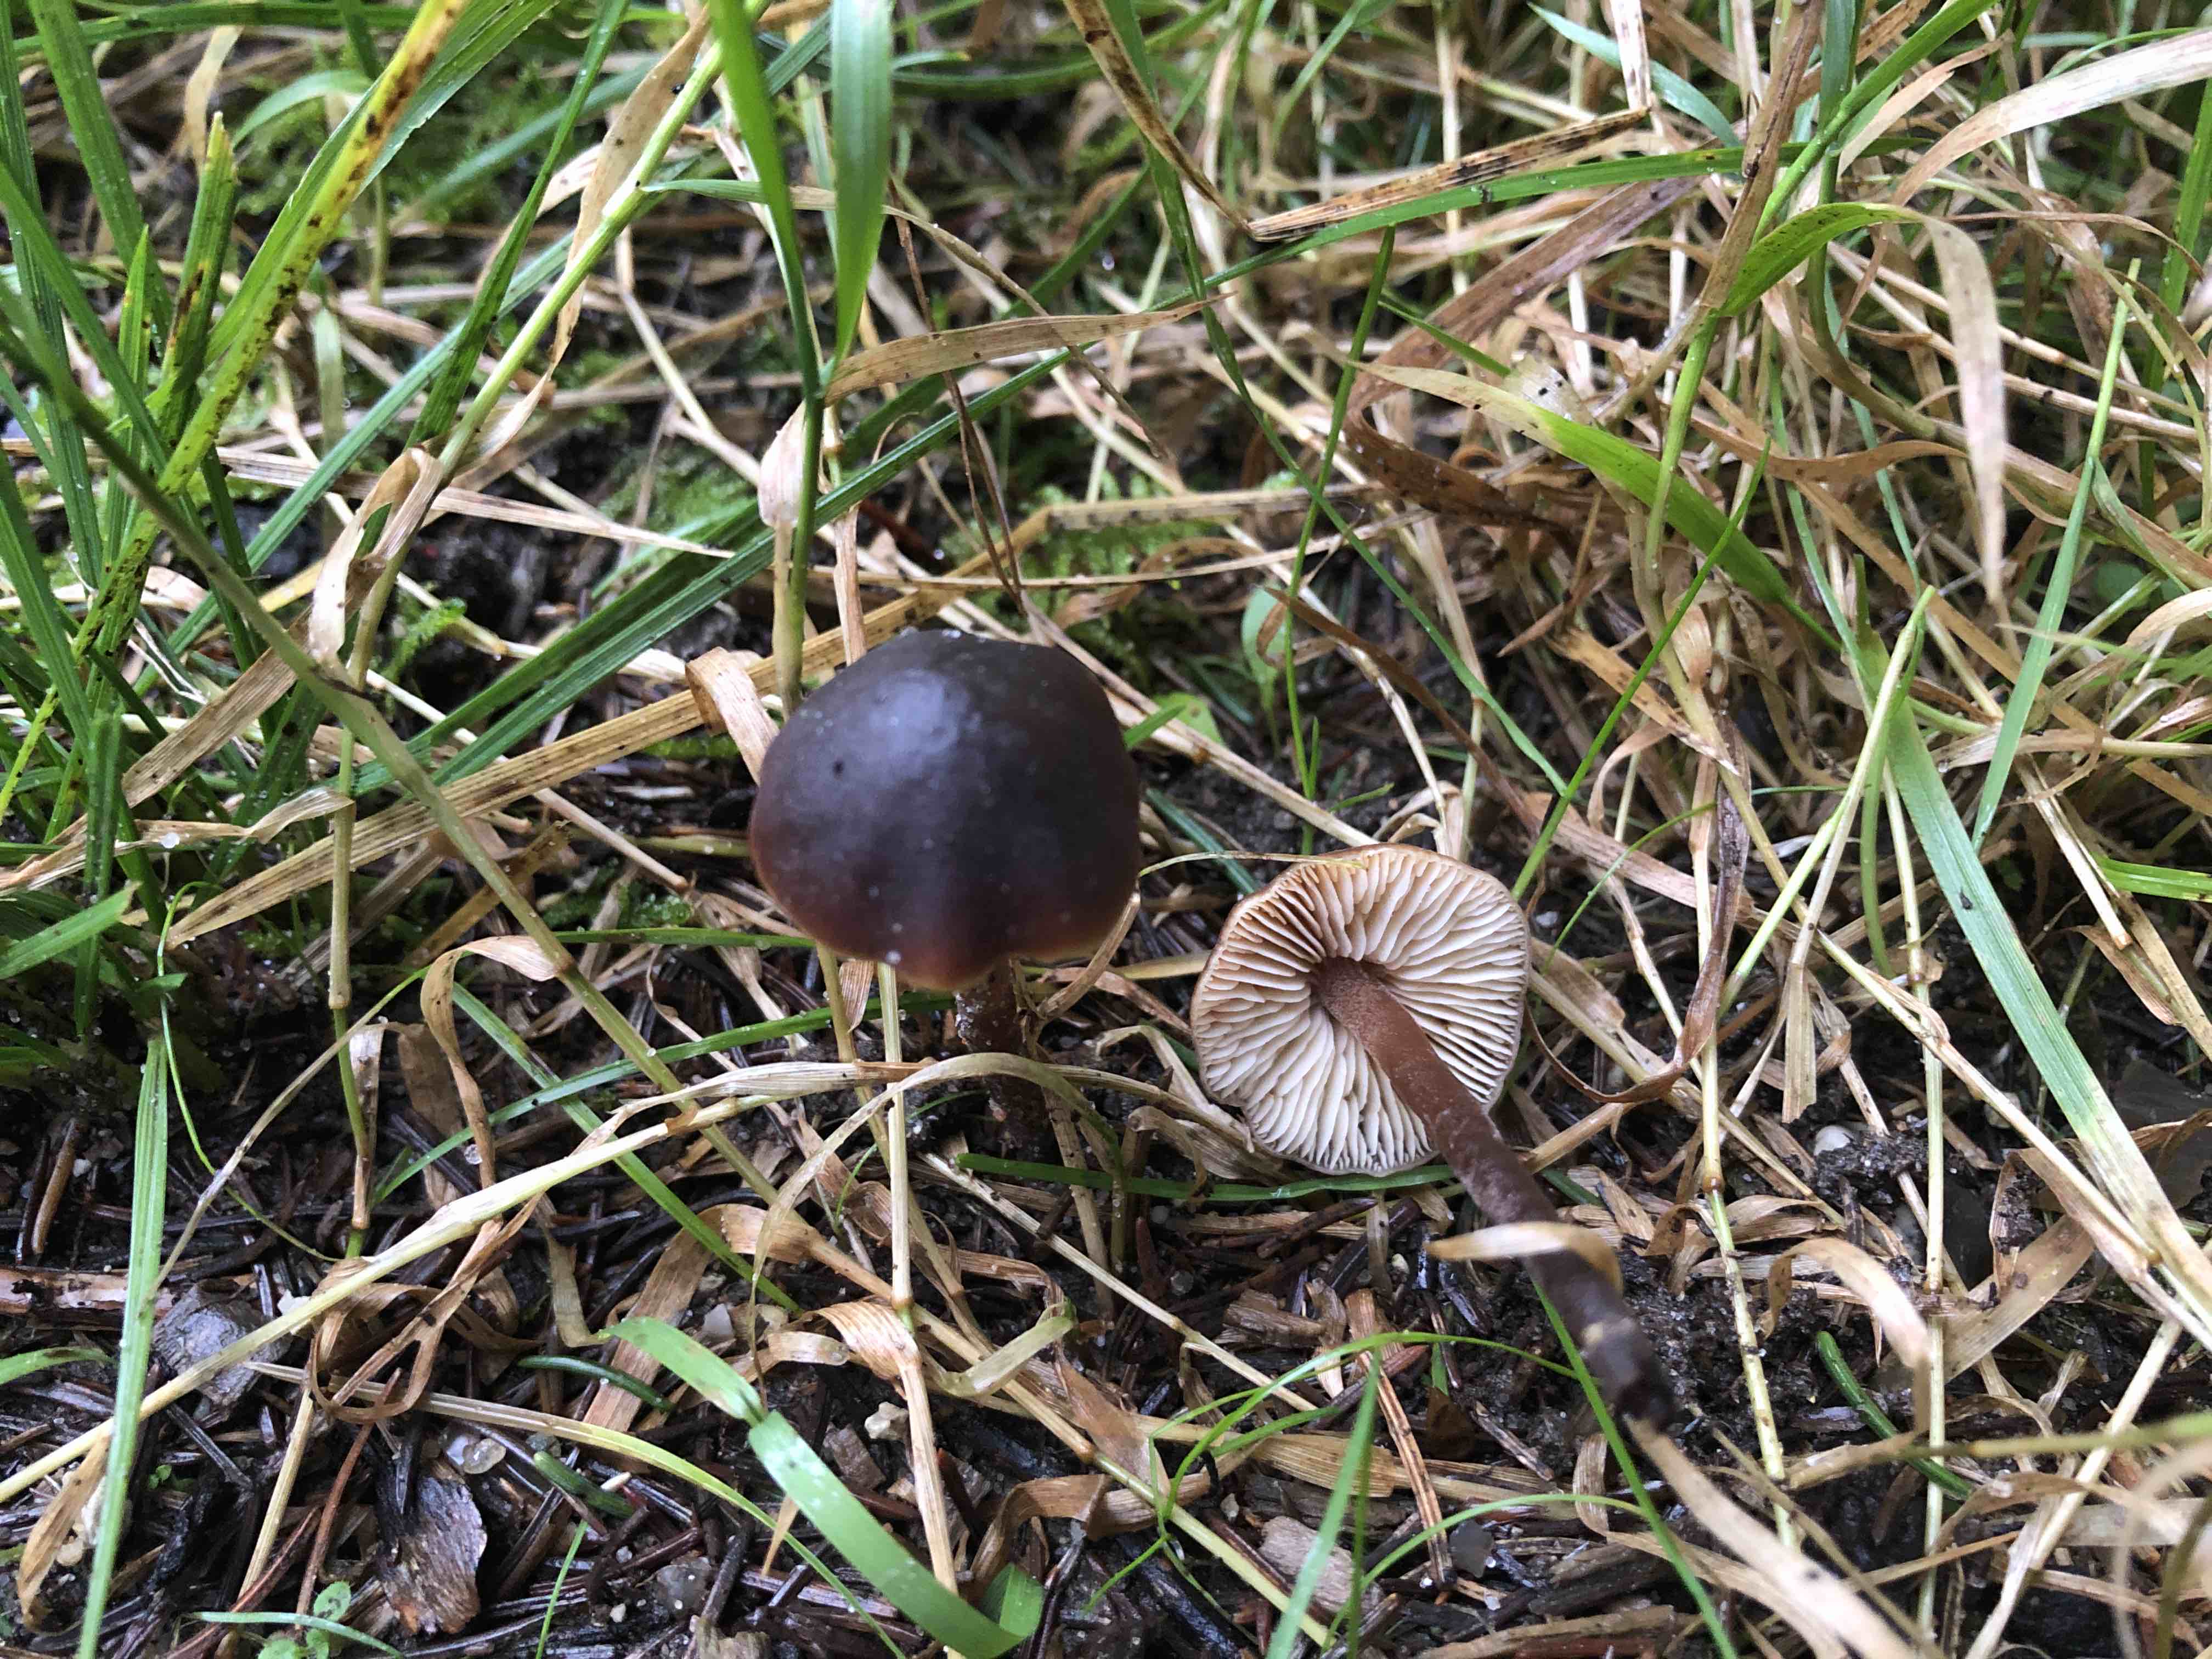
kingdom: Fungi
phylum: Basidiomycota
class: Agaricomycetes
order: Agaricales
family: Macrocystidiaceae
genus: Macrocystidia
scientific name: Macrocystidia cucumis
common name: agurkehat
